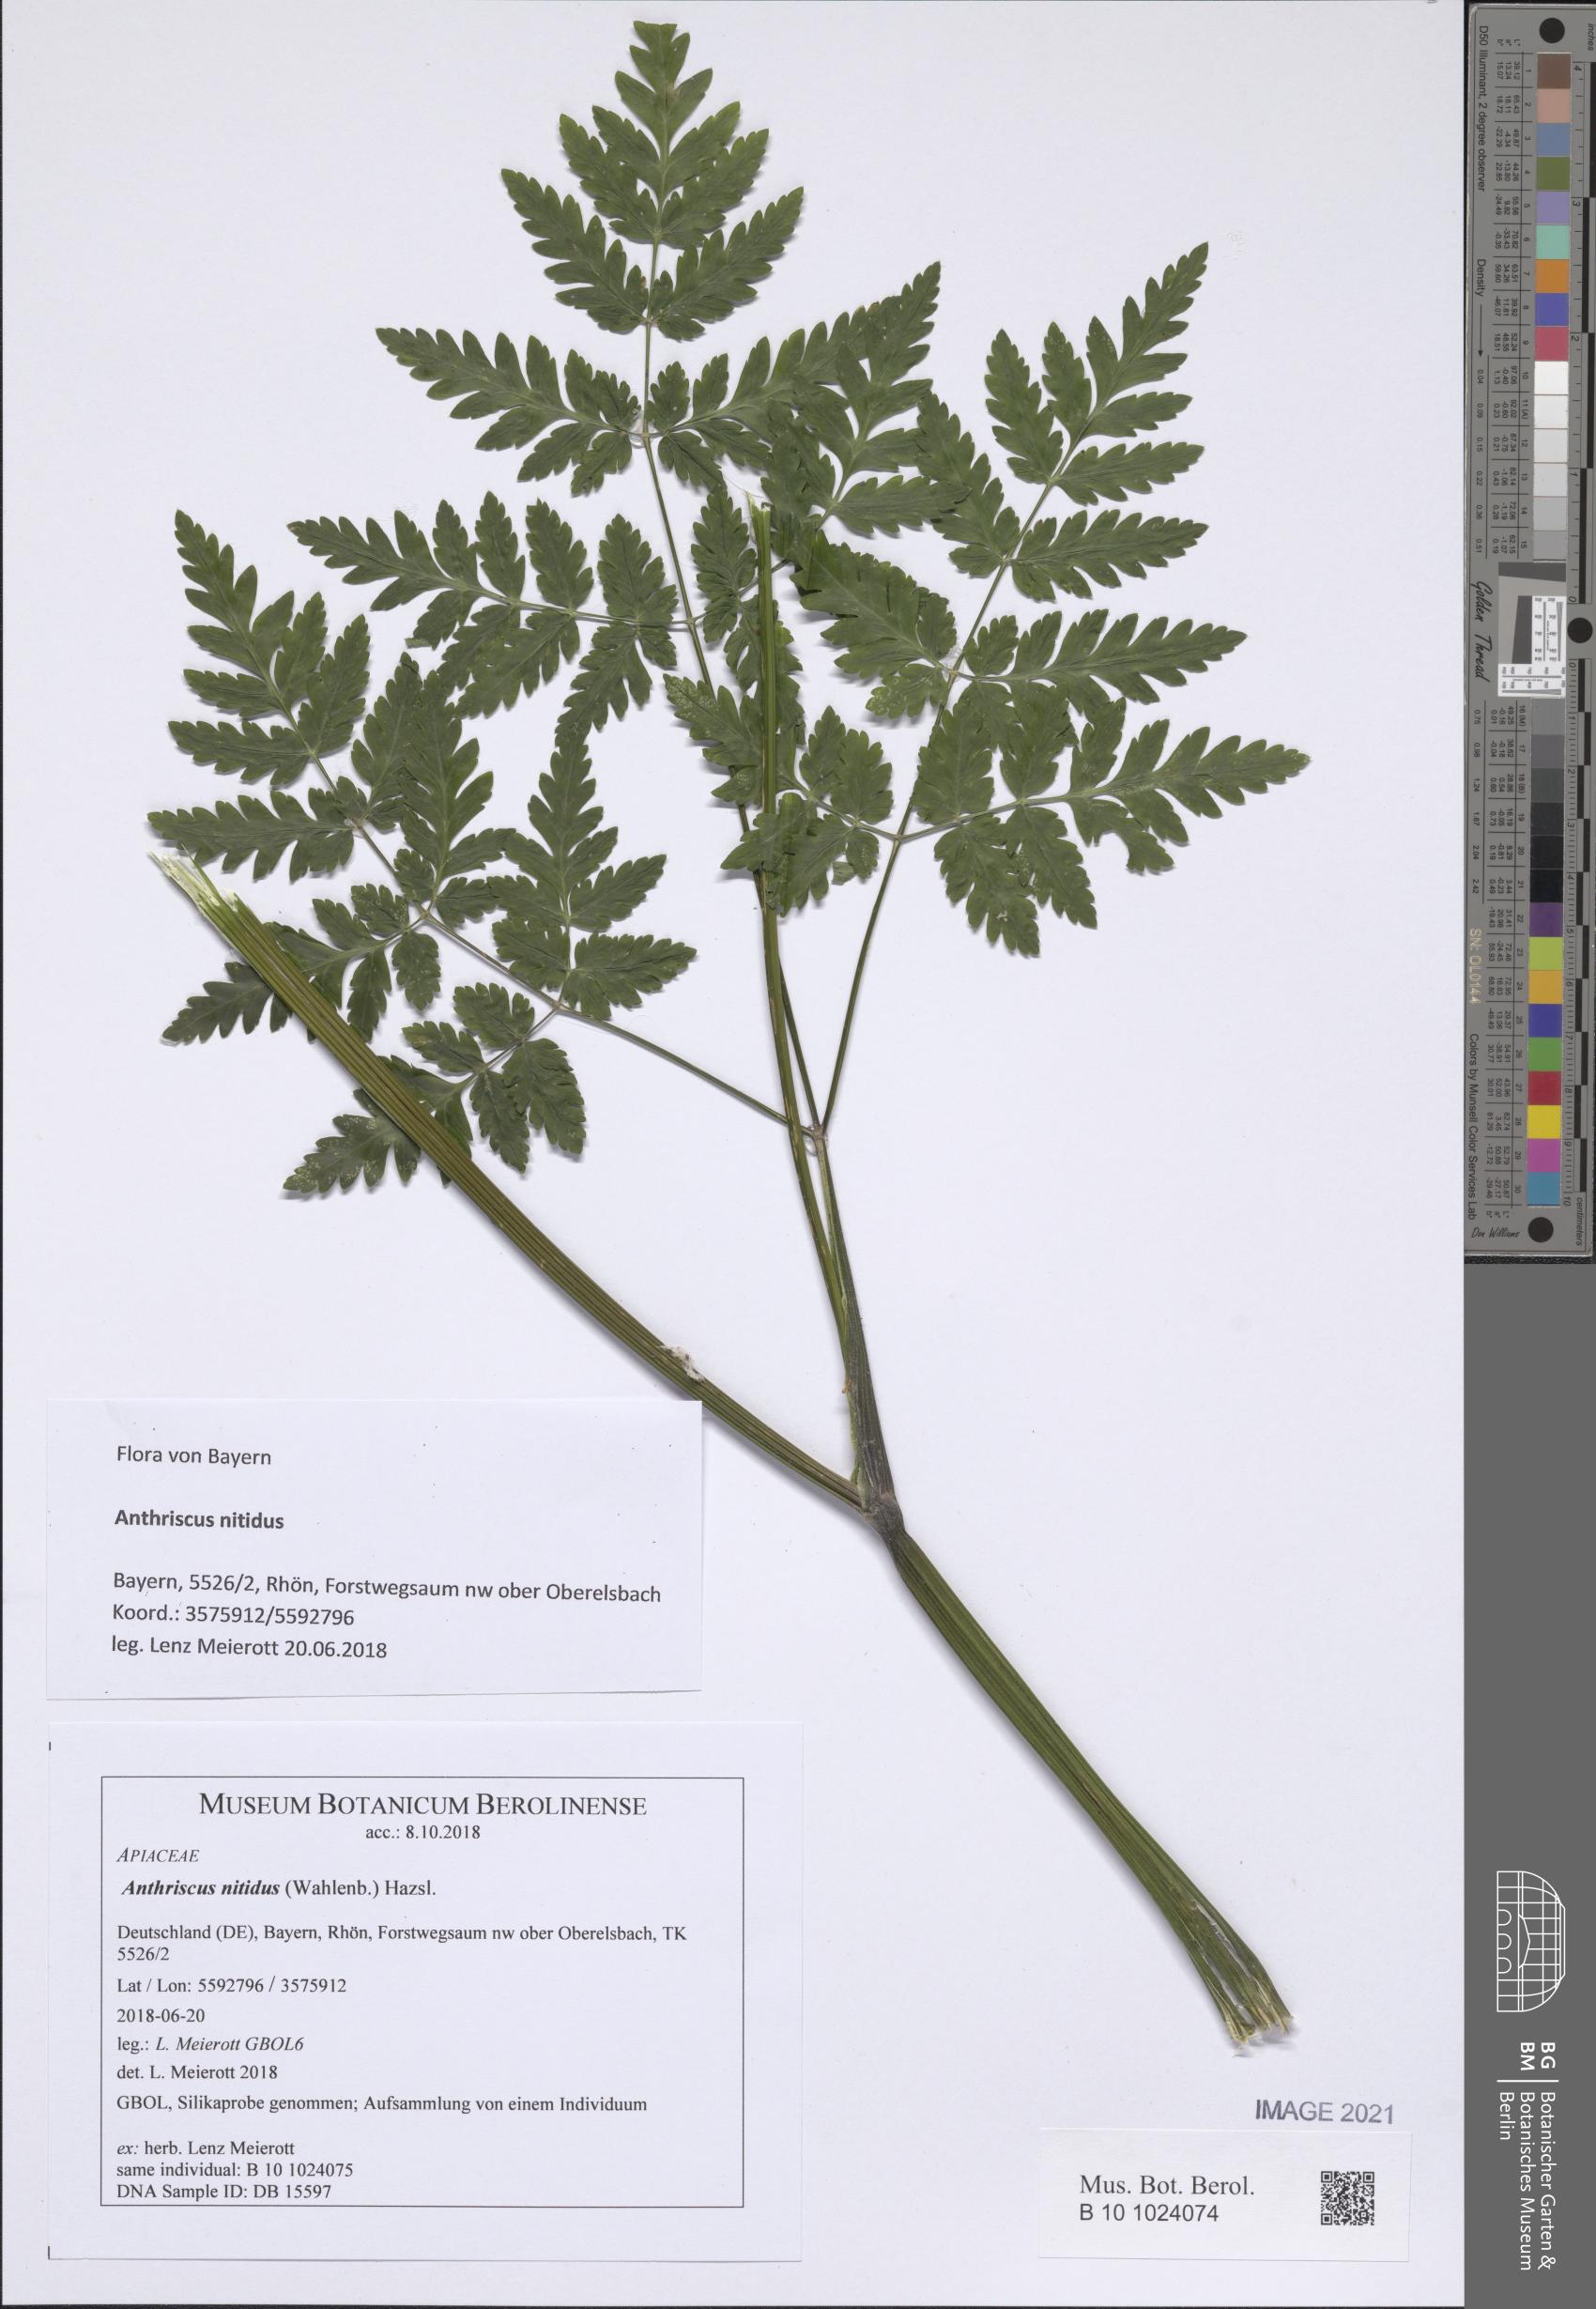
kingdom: Plantae
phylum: Tracheophyta
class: Magnoliopsida
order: Apiales
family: Apiaceae
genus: Anthriscus
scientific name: Anthriscus nitida
